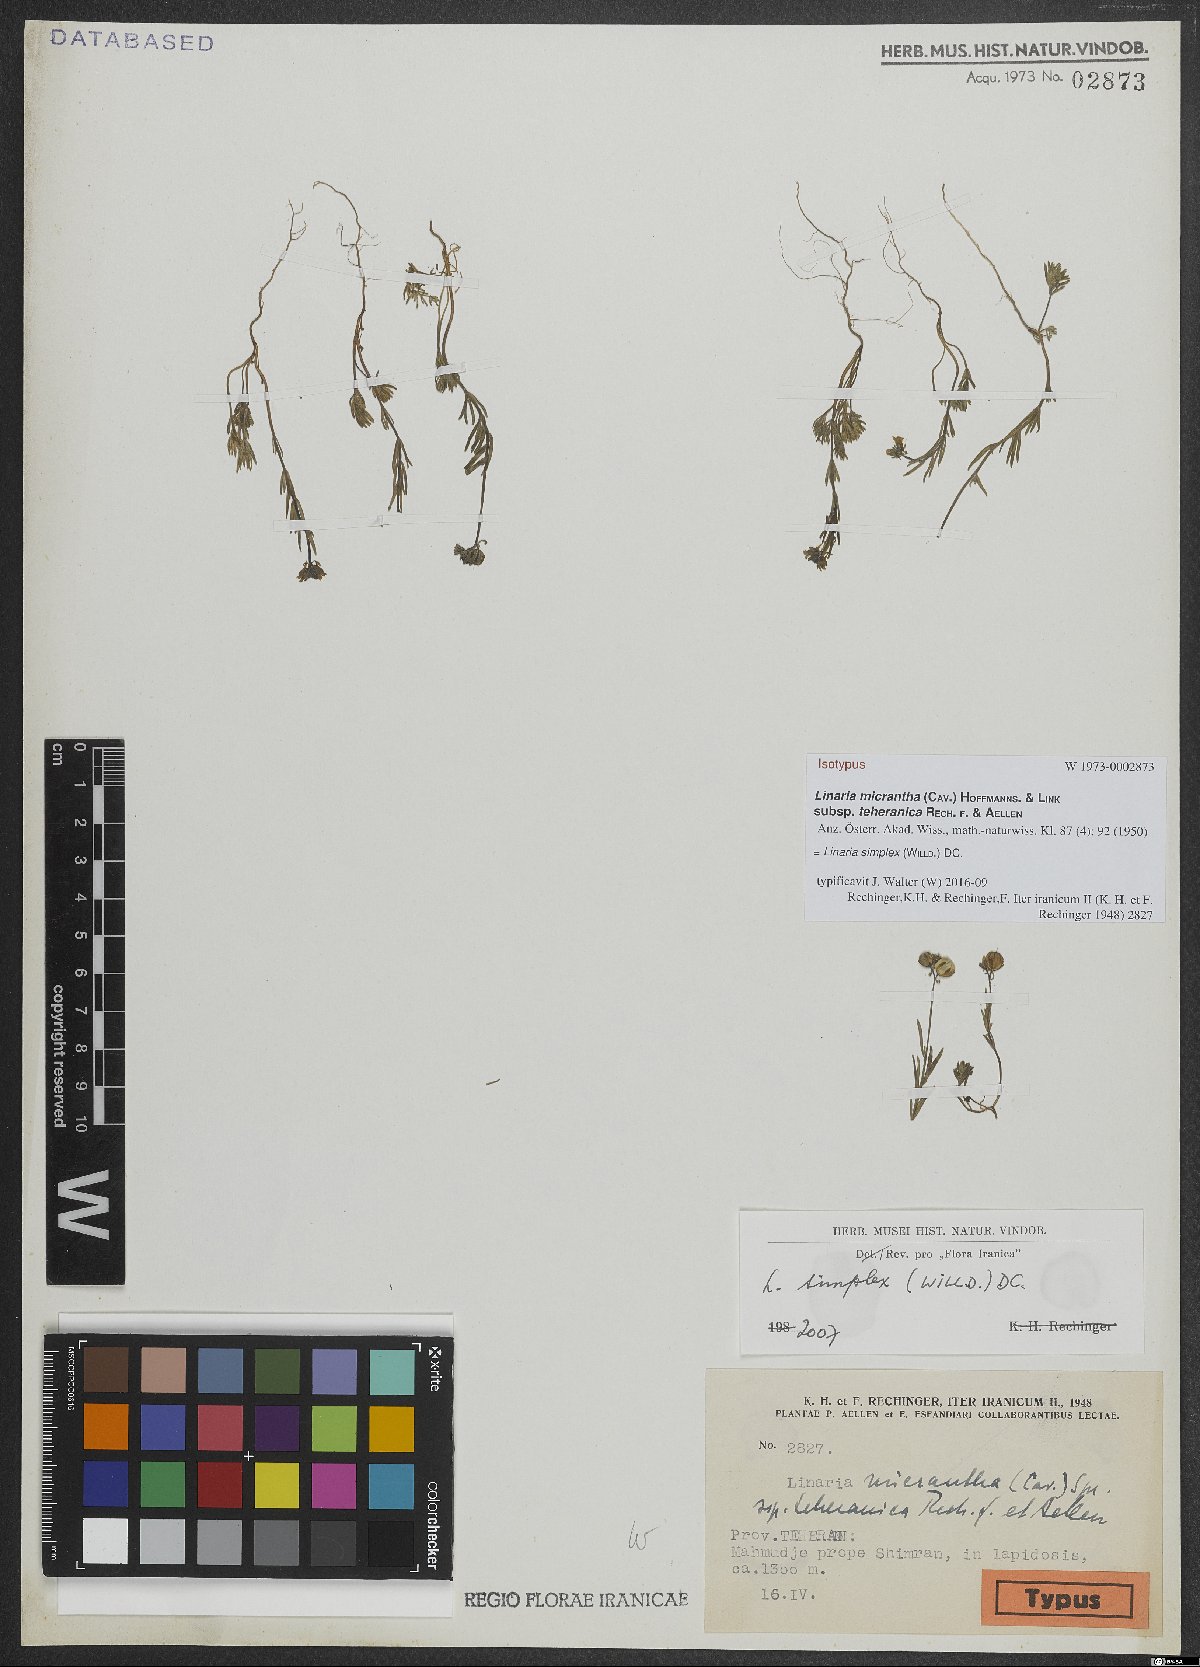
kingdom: Plantae
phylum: Tracheophyta
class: Magnoliopsida
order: Lamiales
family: Plantaginaceae
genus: Linaria
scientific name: Linaria simplex
